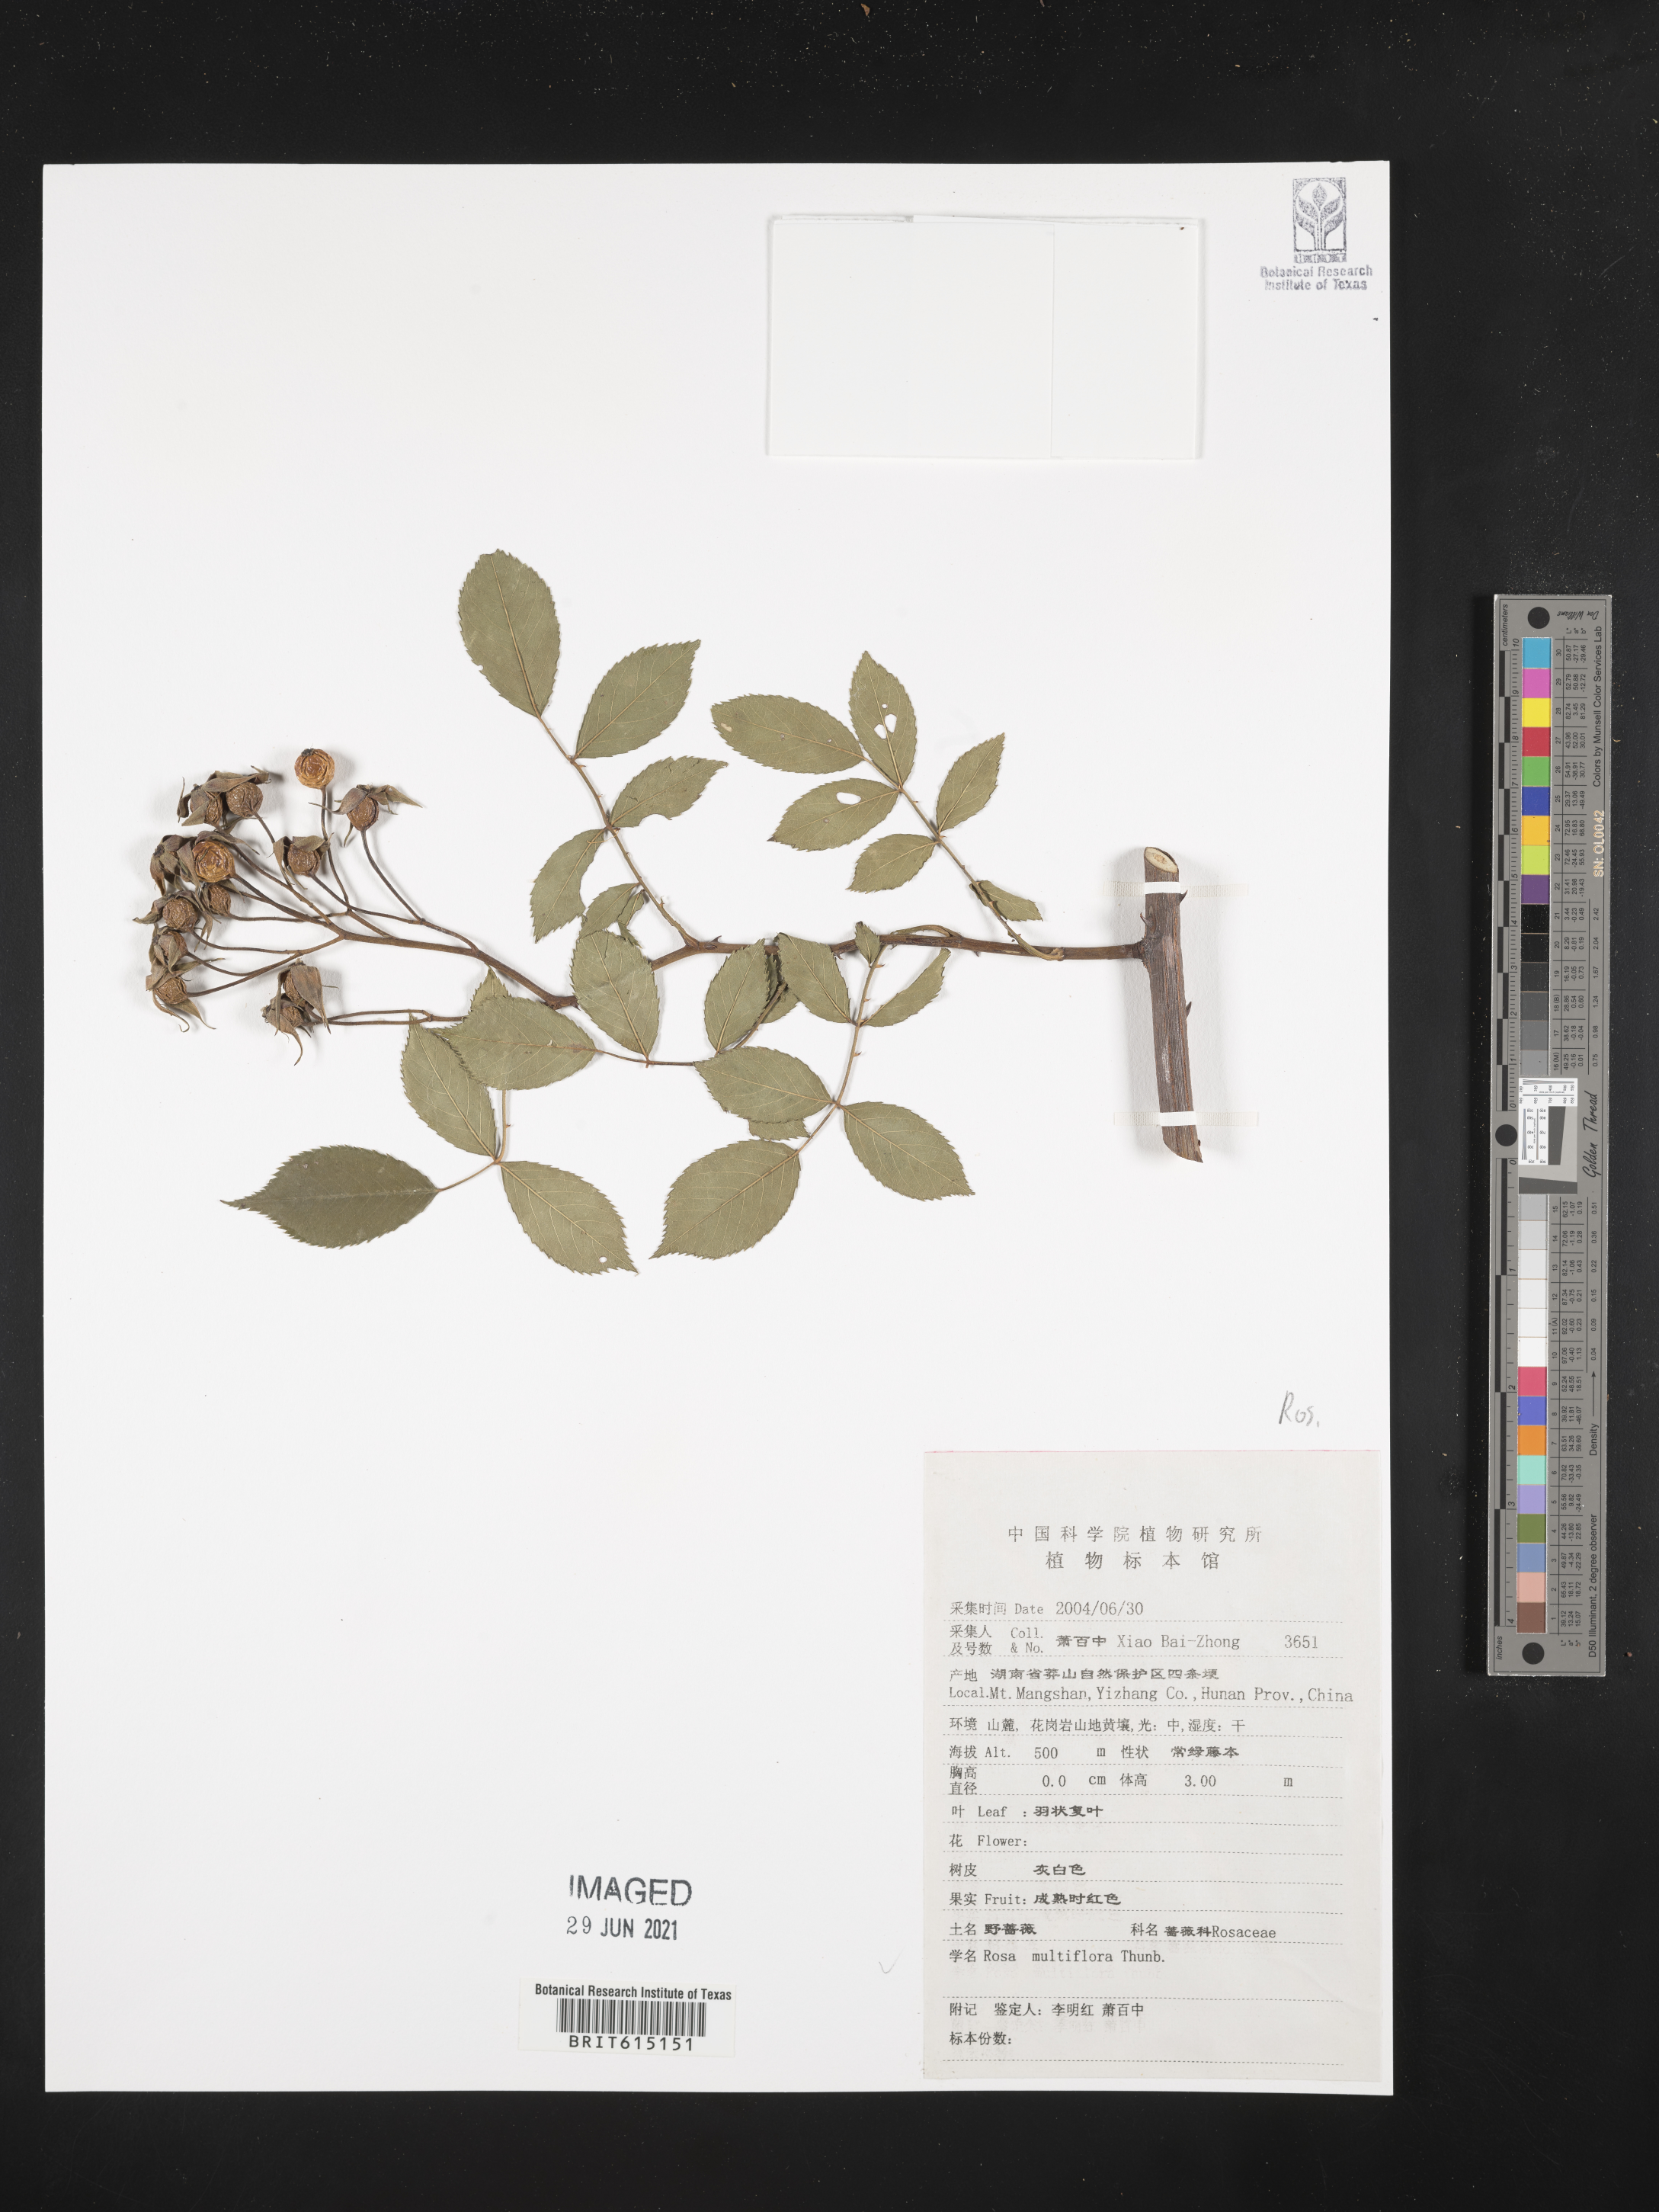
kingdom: Plantae
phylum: Tracheophyta
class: Magnoliopsida
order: Rosales
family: Rosaceae
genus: Rosa
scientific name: Rosa multiflora
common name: Multiflora rose
